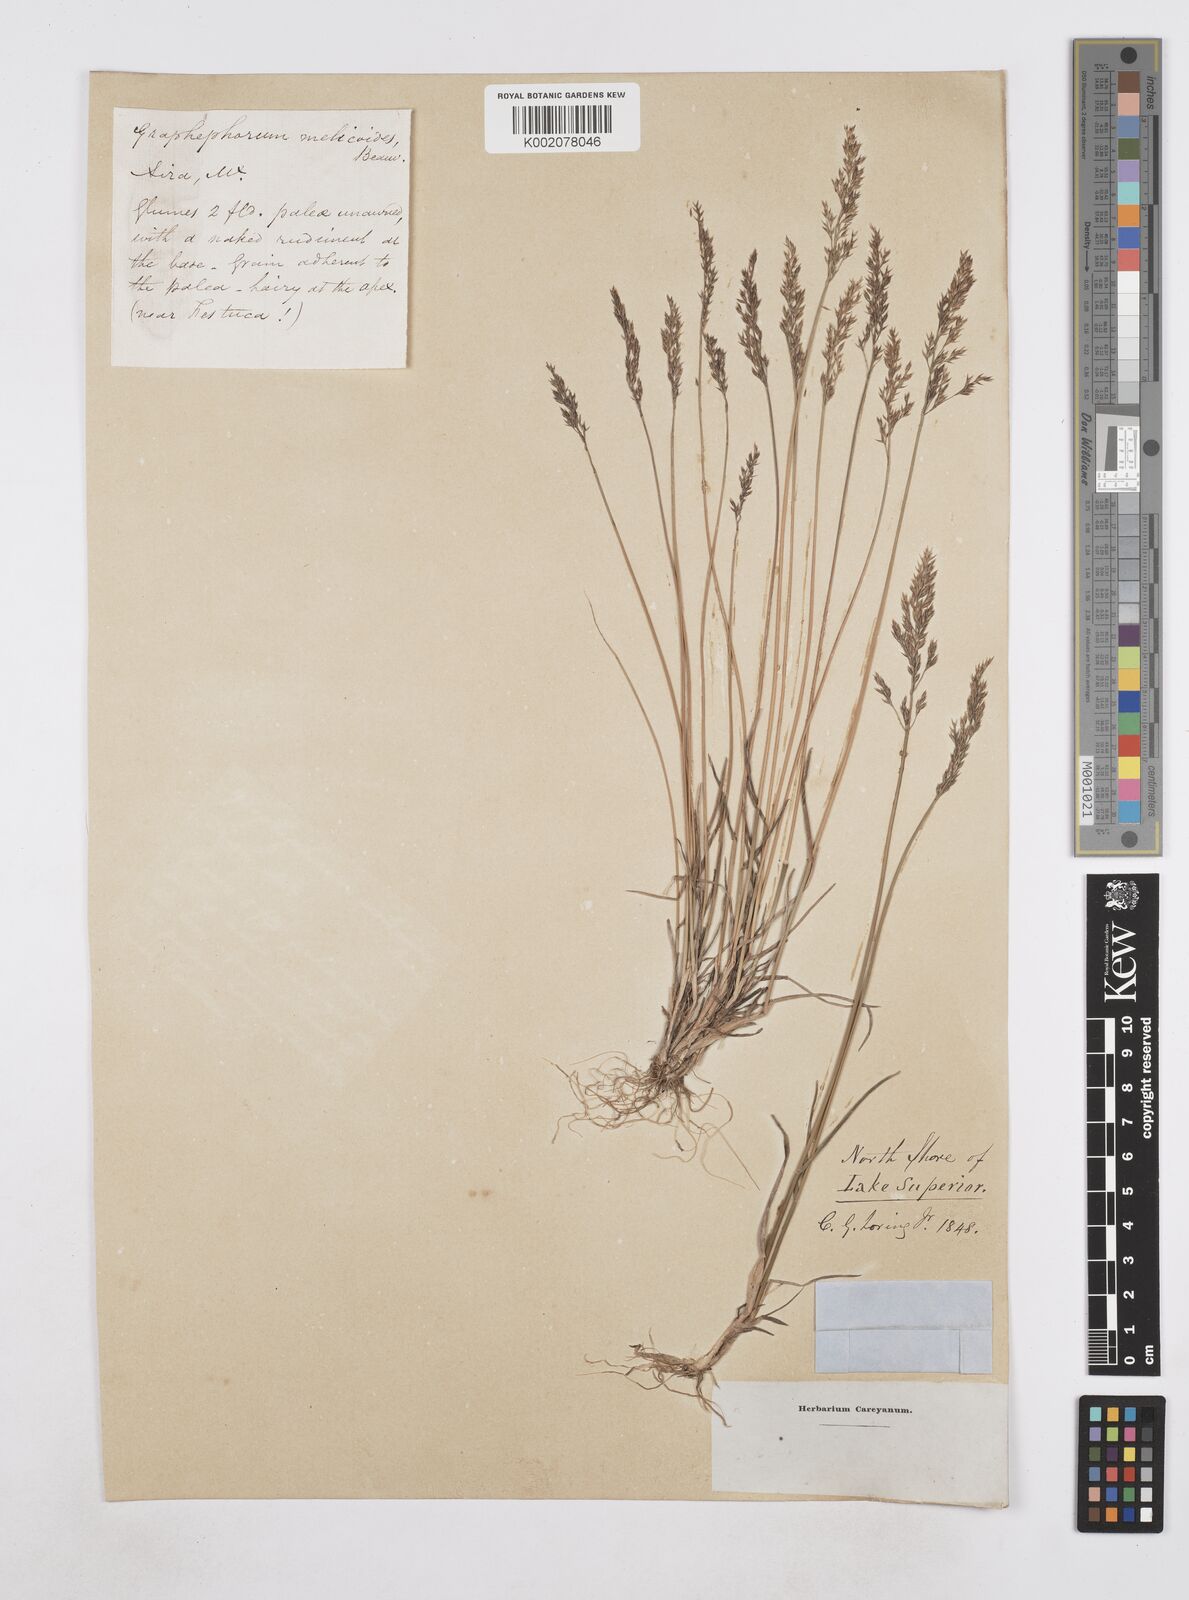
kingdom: Plantae
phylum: Tracheophyta
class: Liliopsida
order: Poales
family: Poaceae
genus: Poa
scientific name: Poa
